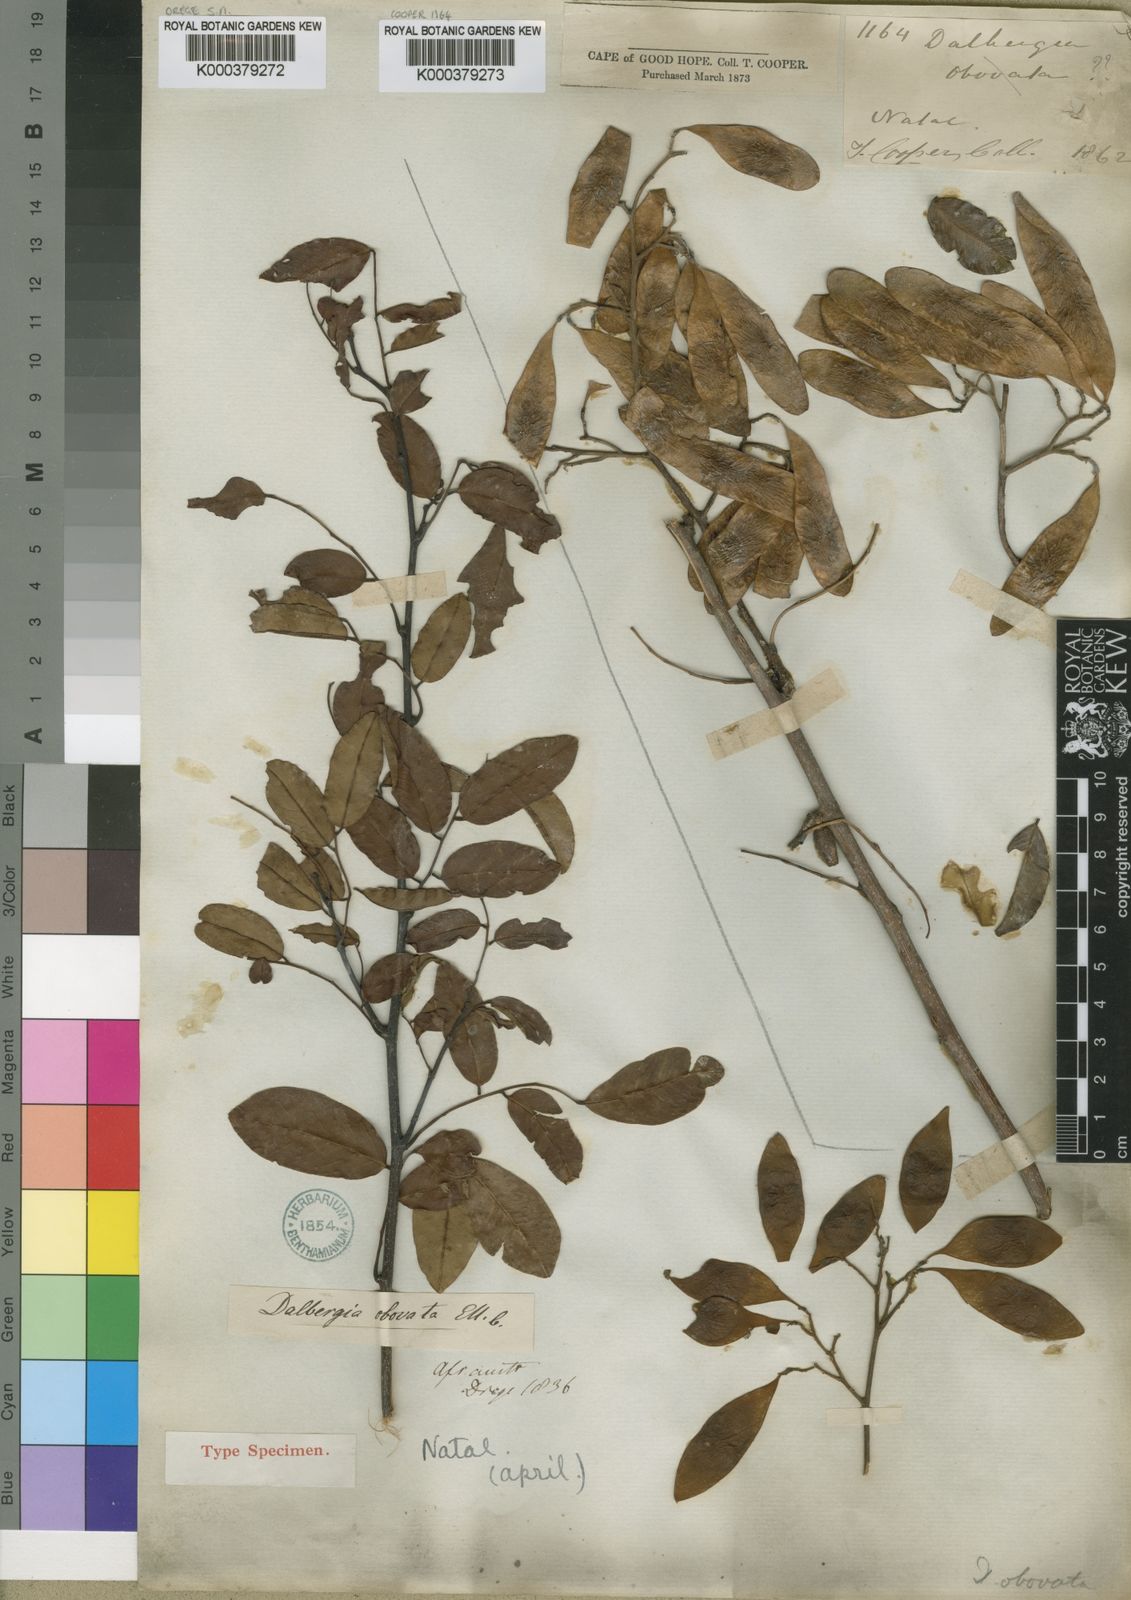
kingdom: Plantae
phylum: Tracheophyta
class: Magnoliopsida
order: Fabales
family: Fabaceae
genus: Dalbergia
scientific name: Dalbergia obovata
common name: Climbing flat-bean
